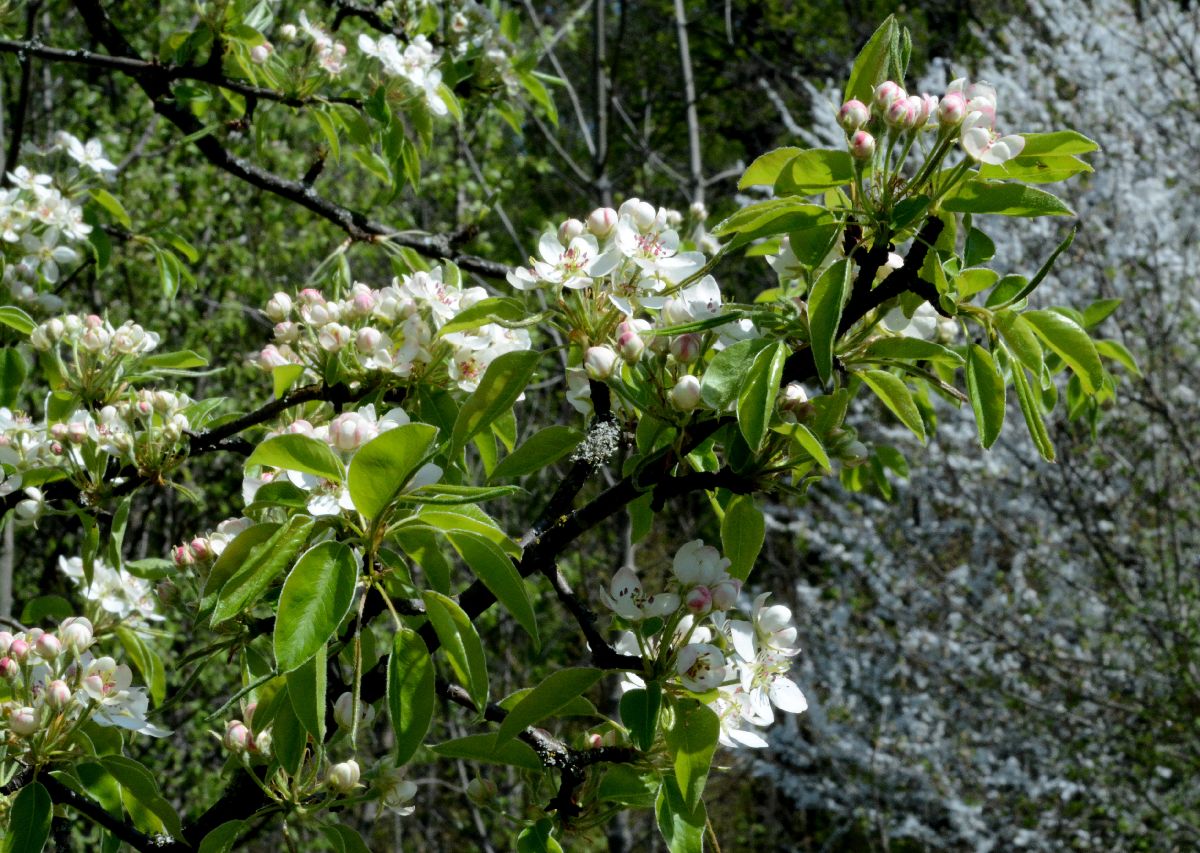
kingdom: Plantae
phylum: Tracheophyta
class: Magnoliopsida
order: Rosales
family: Rosaceae
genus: Pyrus
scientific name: Pyrus communis
